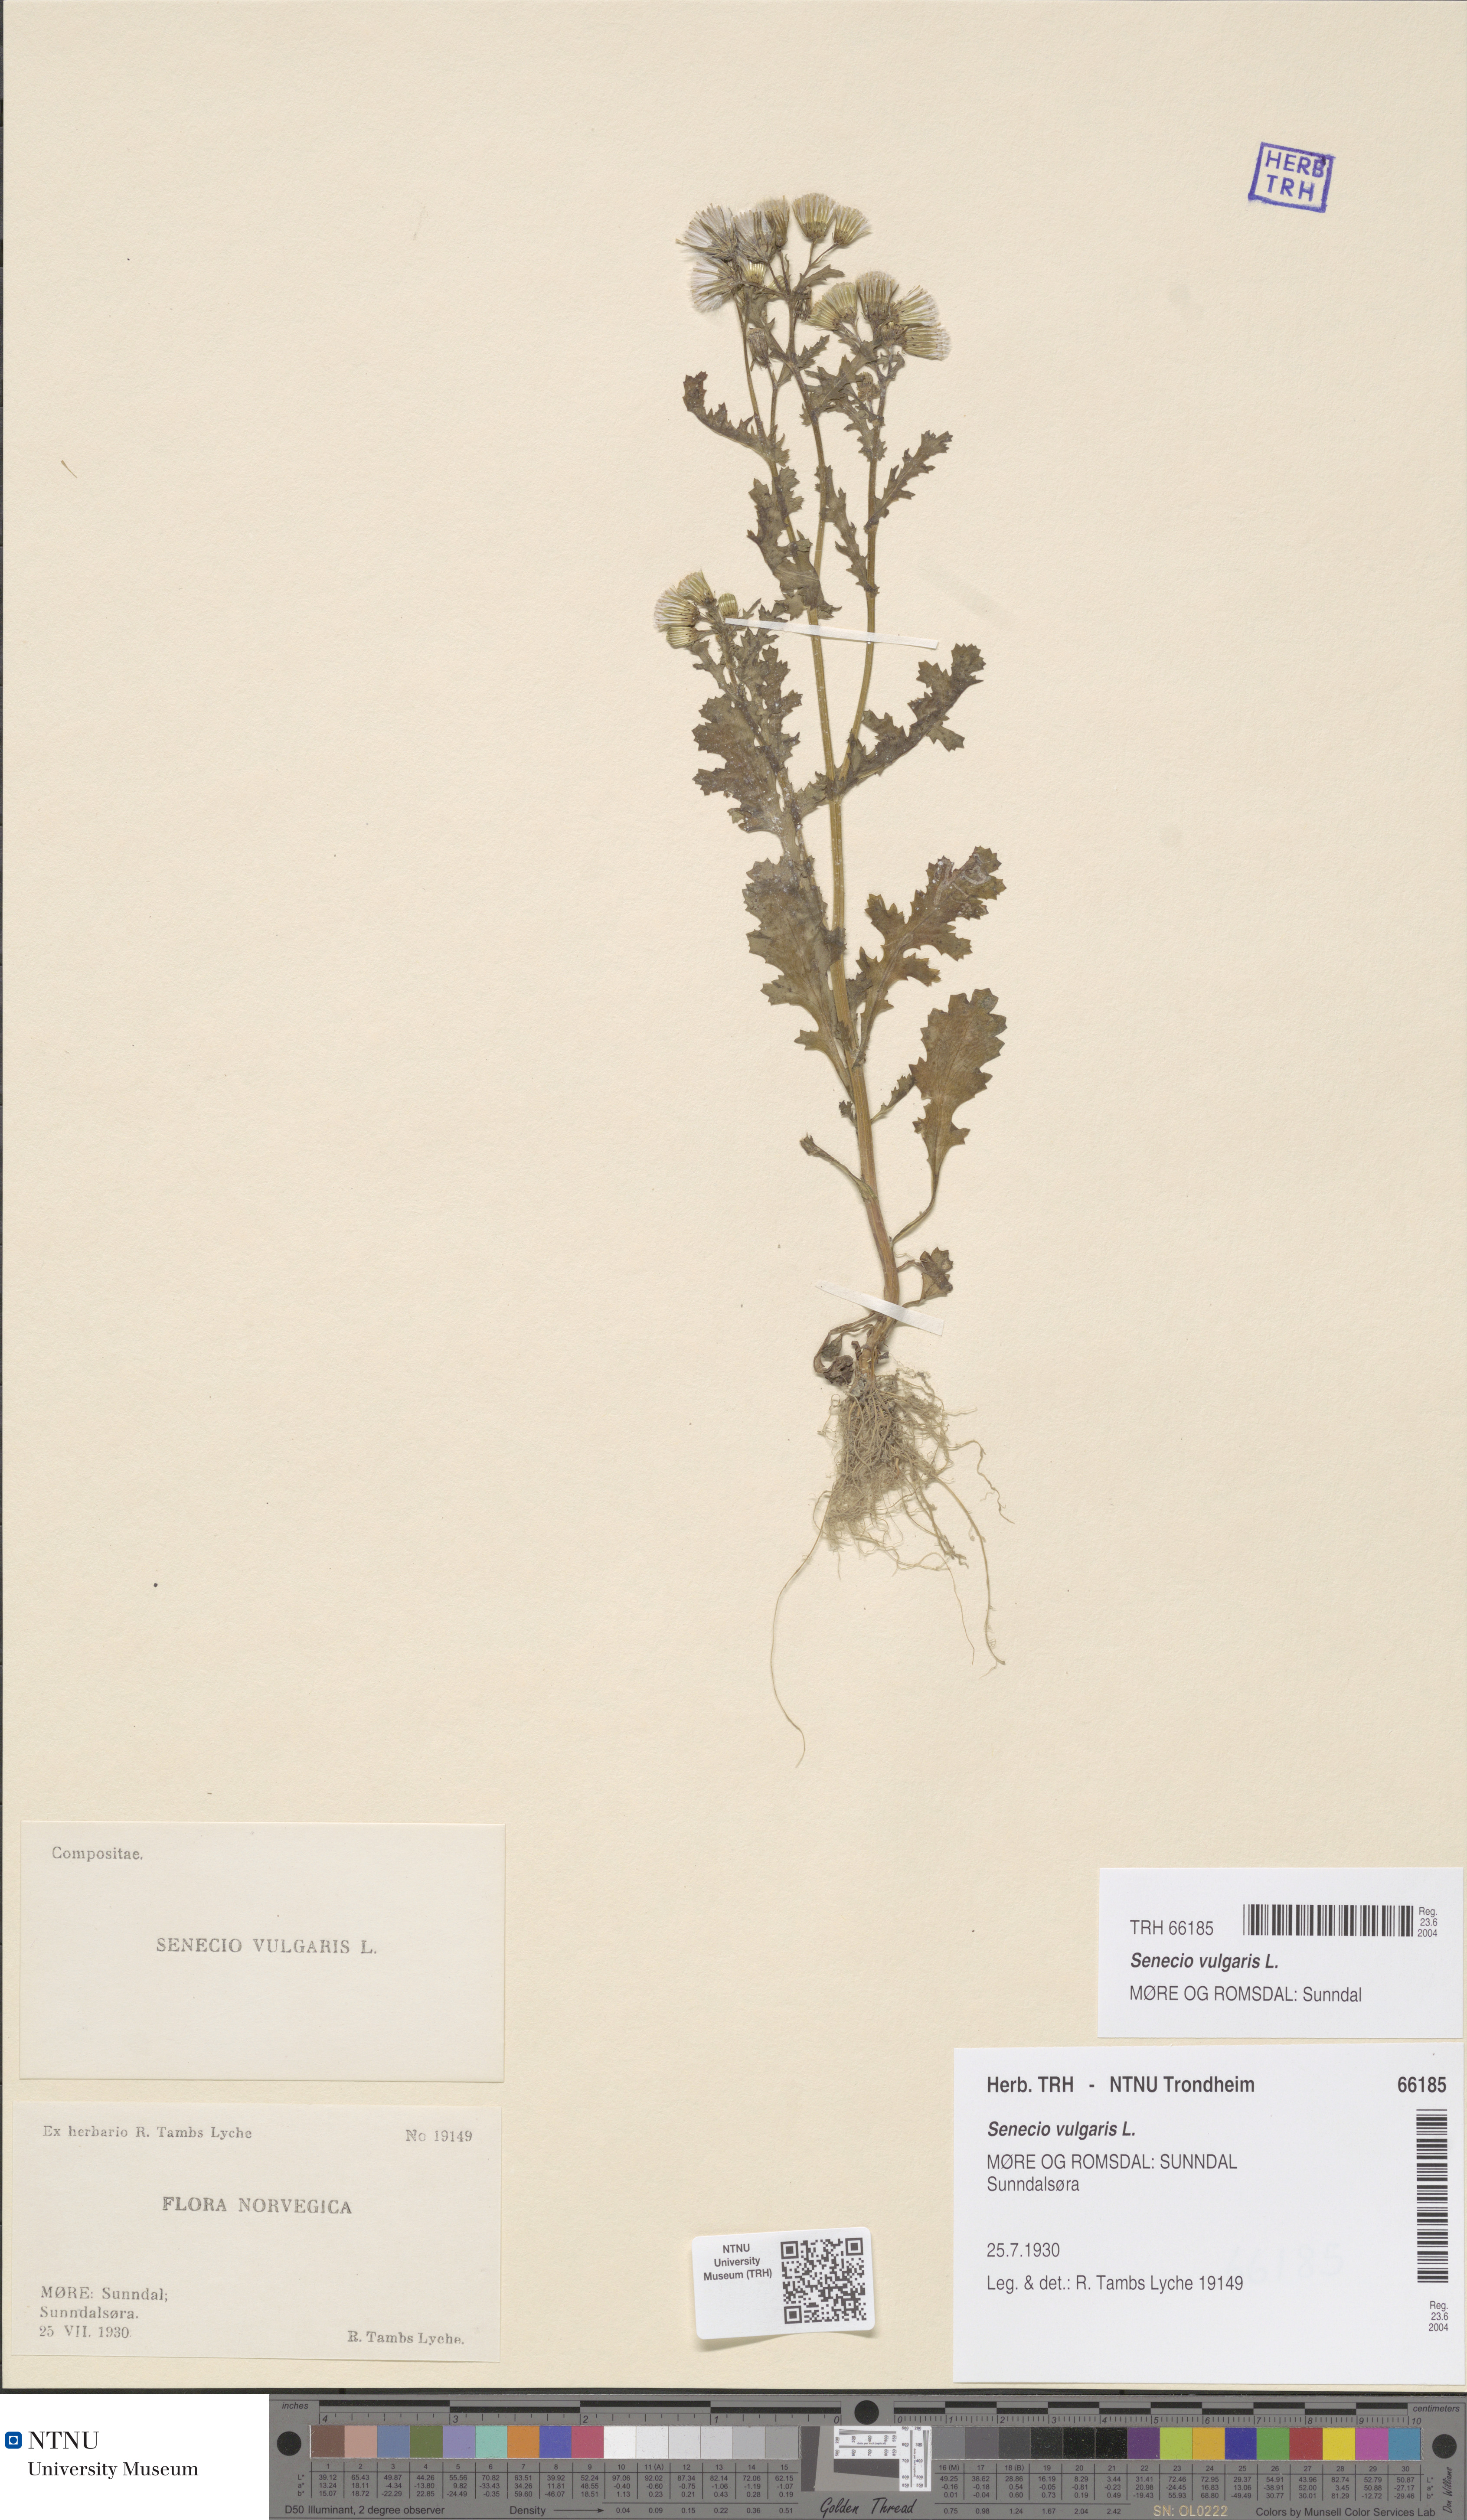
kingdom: Plantae
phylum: Tracheophyta
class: Magnoliopsida
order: Asterales
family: Asteraceae
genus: Senecio
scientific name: Senecio vulgaris
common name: Old-man-in-the-spring
